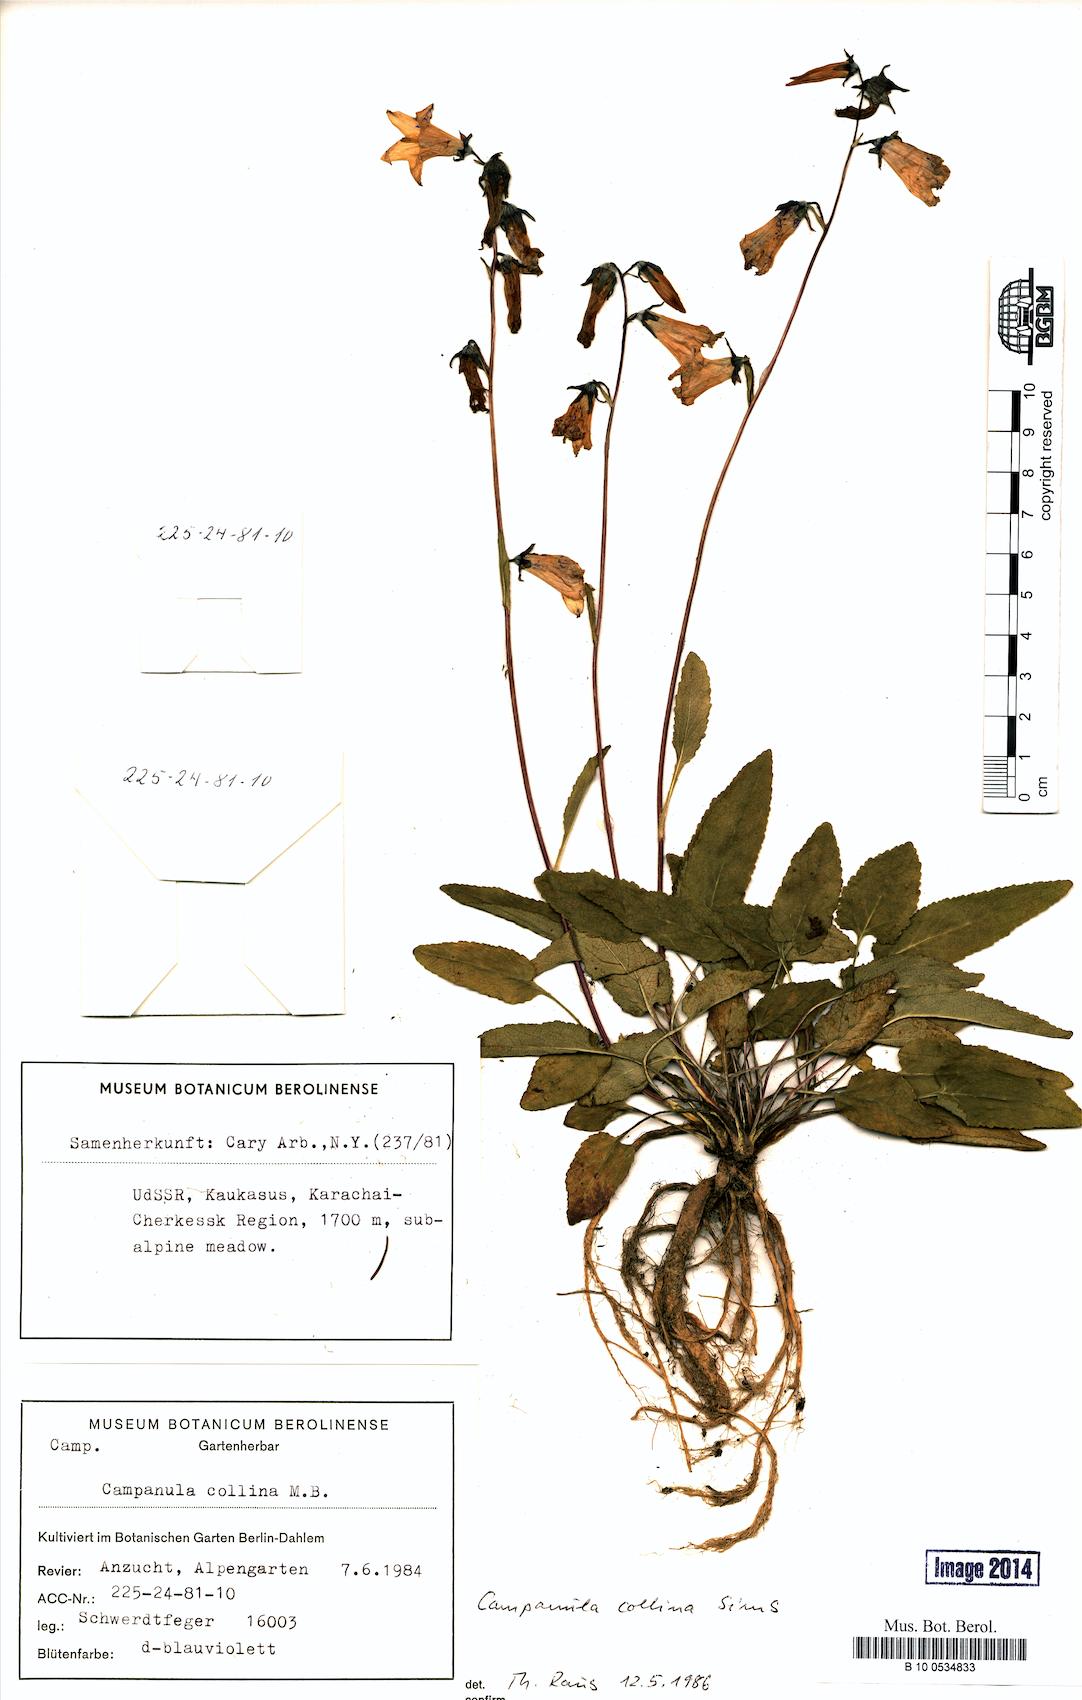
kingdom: Plantae
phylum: Tracheophyta
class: Magnoliopsida
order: Asterales
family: Campanulaceae
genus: Campanula
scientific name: Campanula collina
